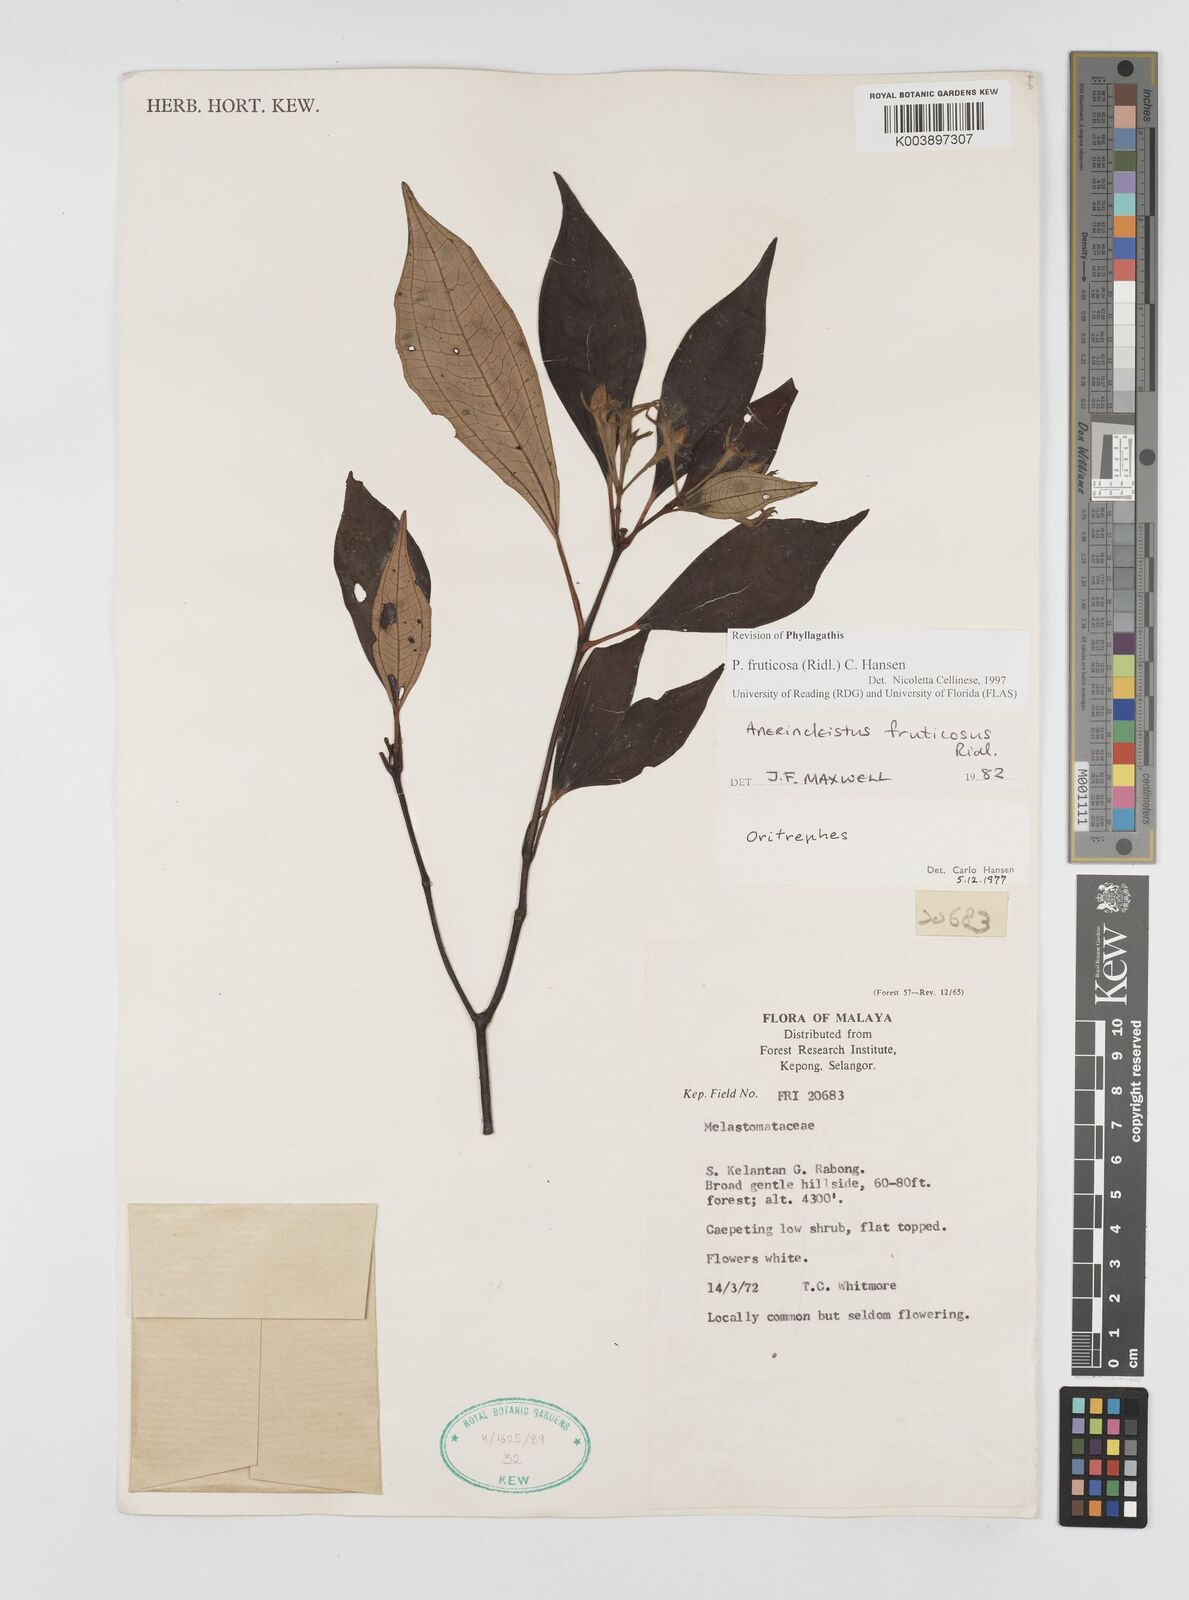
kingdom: Plantae
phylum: Tracheophyta
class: Magnoliopsida
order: Myrtales
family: Melastomataceae
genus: Anerincleistus
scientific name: Anerincleistus fruticosus
